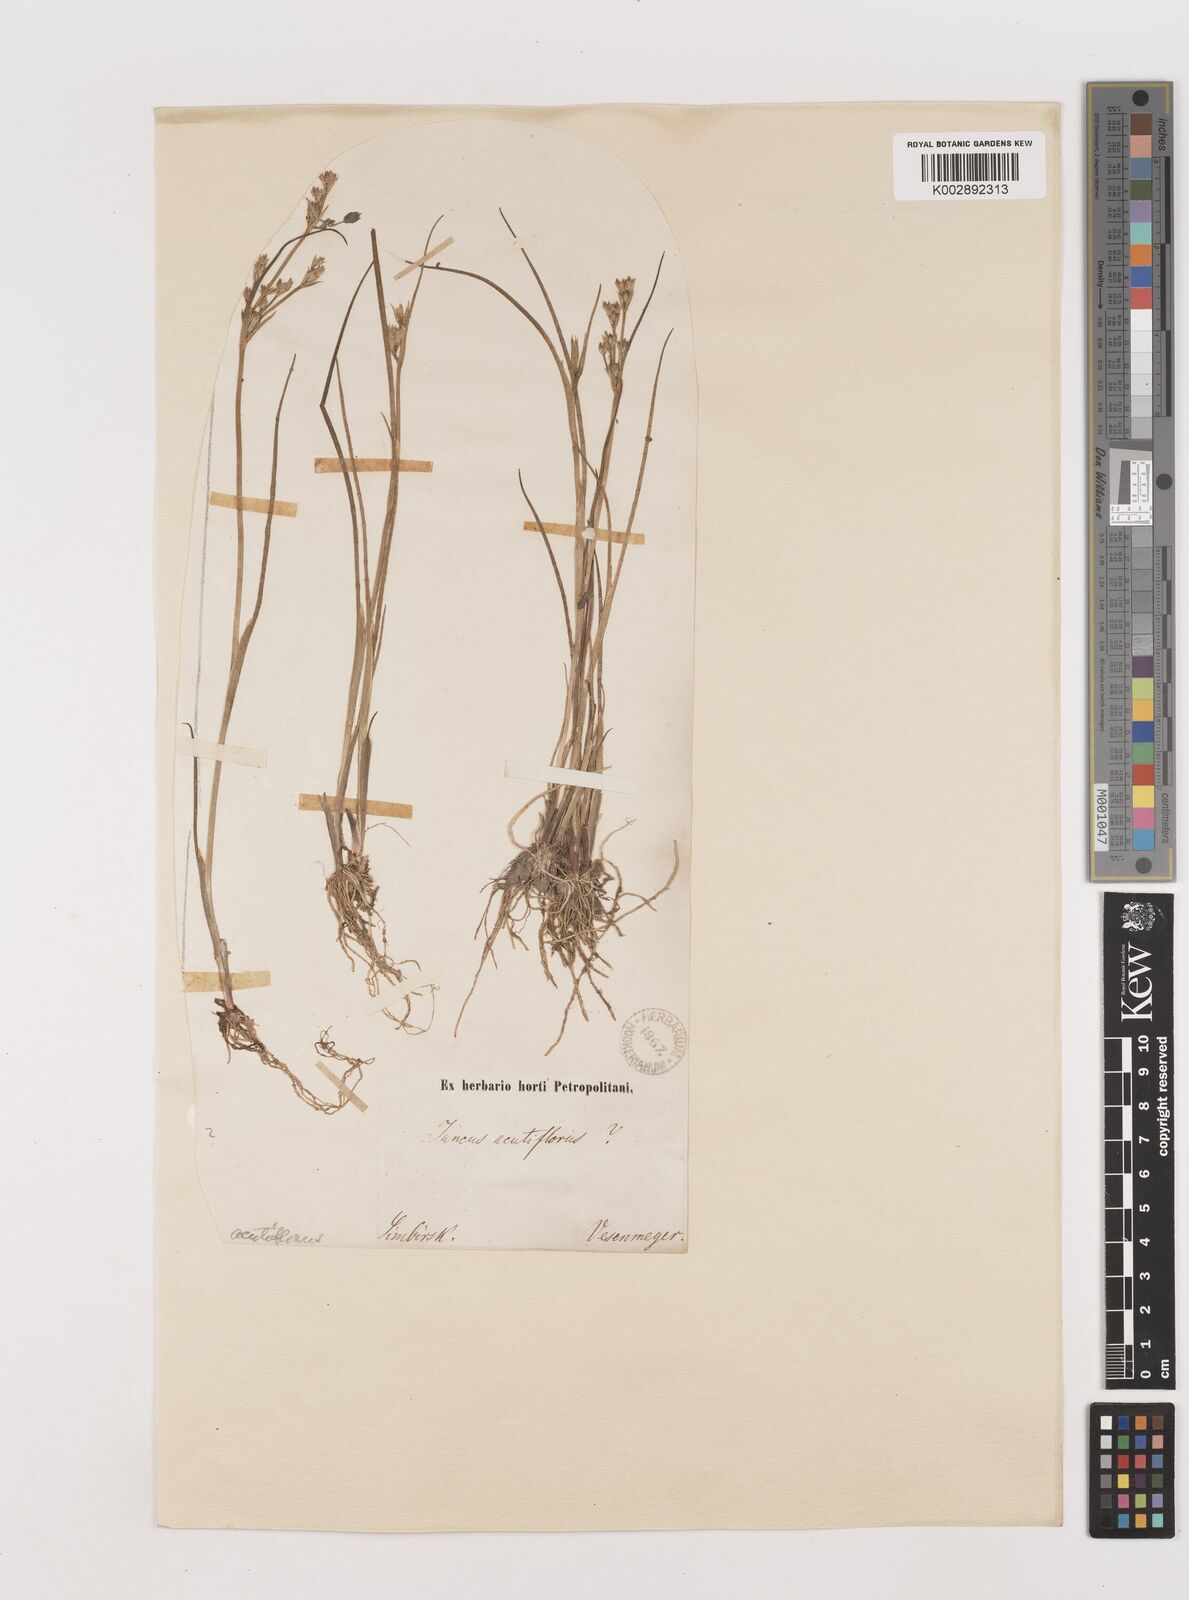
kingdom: Plantae
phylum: Tracheophyta
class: Liliopsida
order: Poales
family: Juncaceae
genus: Juncus
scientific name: Juncus acutiflorus
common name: Sharp-flowered rush
